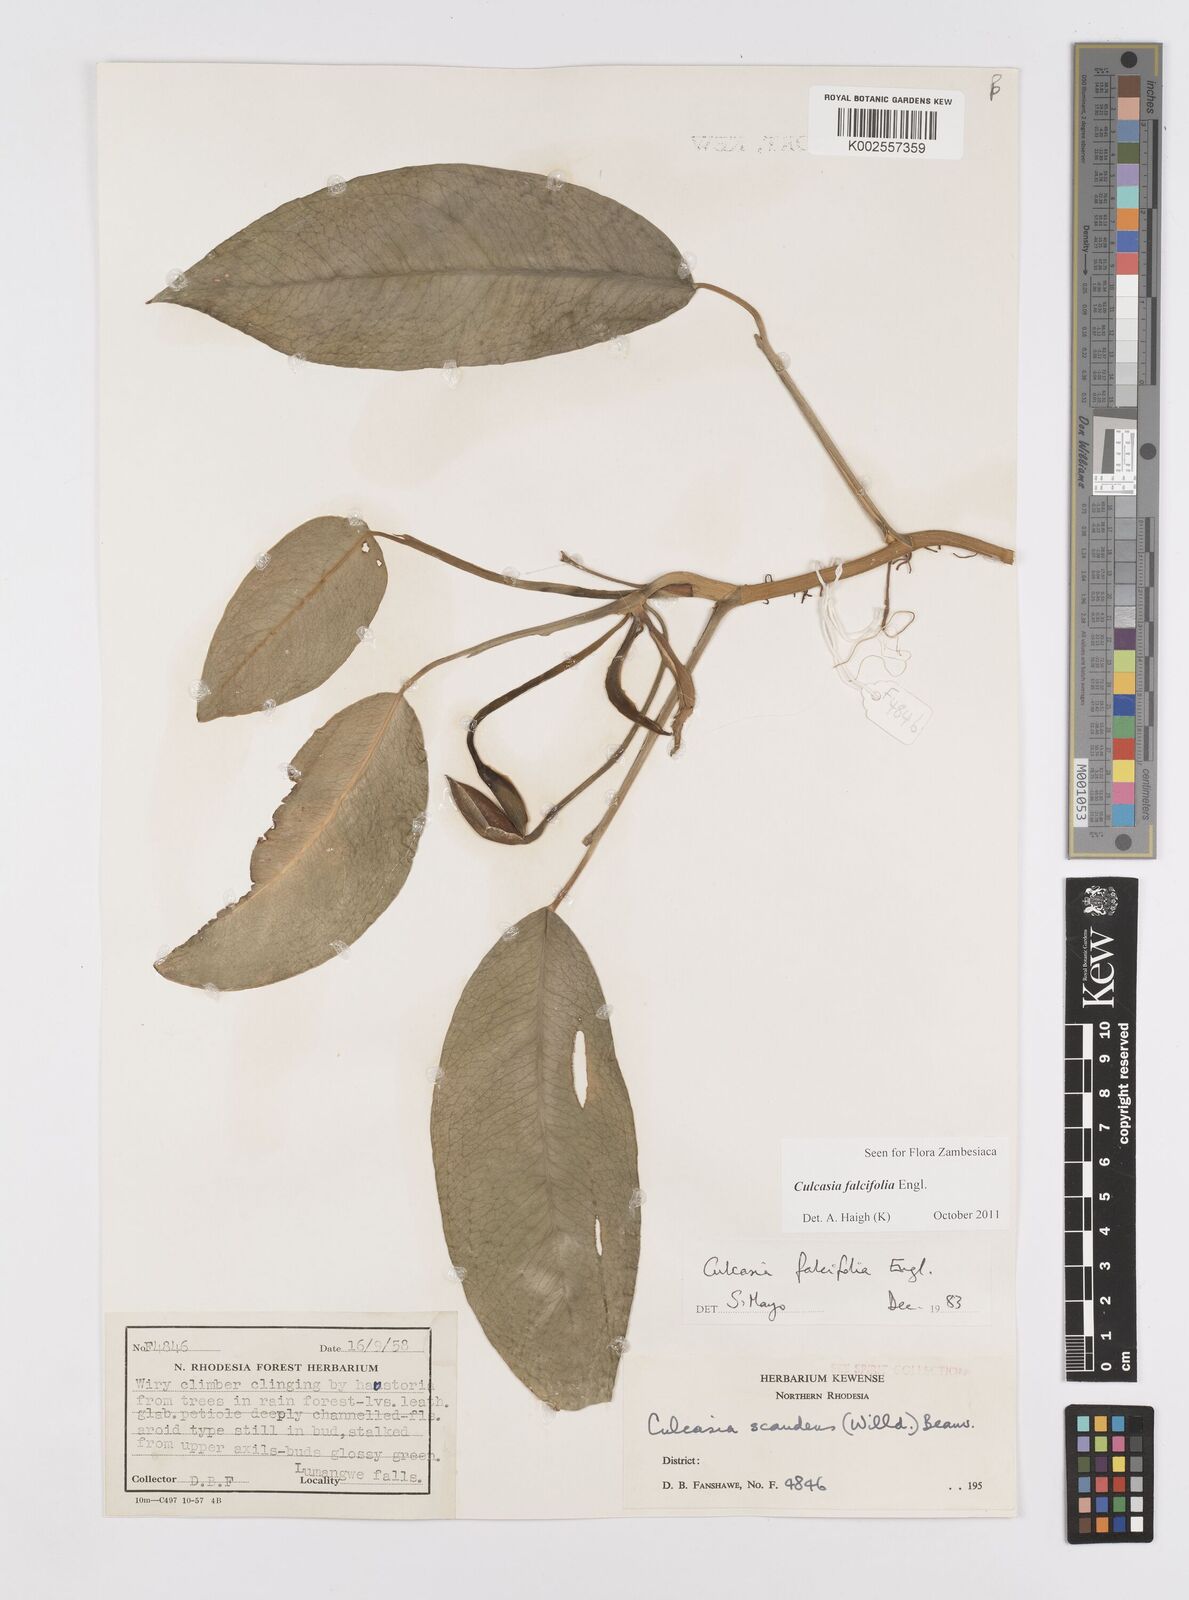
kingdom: Plantae
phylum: Tracheophyta
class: Liliopsida
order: Alismatales
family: Araceae
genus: Culcasia
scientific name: Culcasia falcifolia
